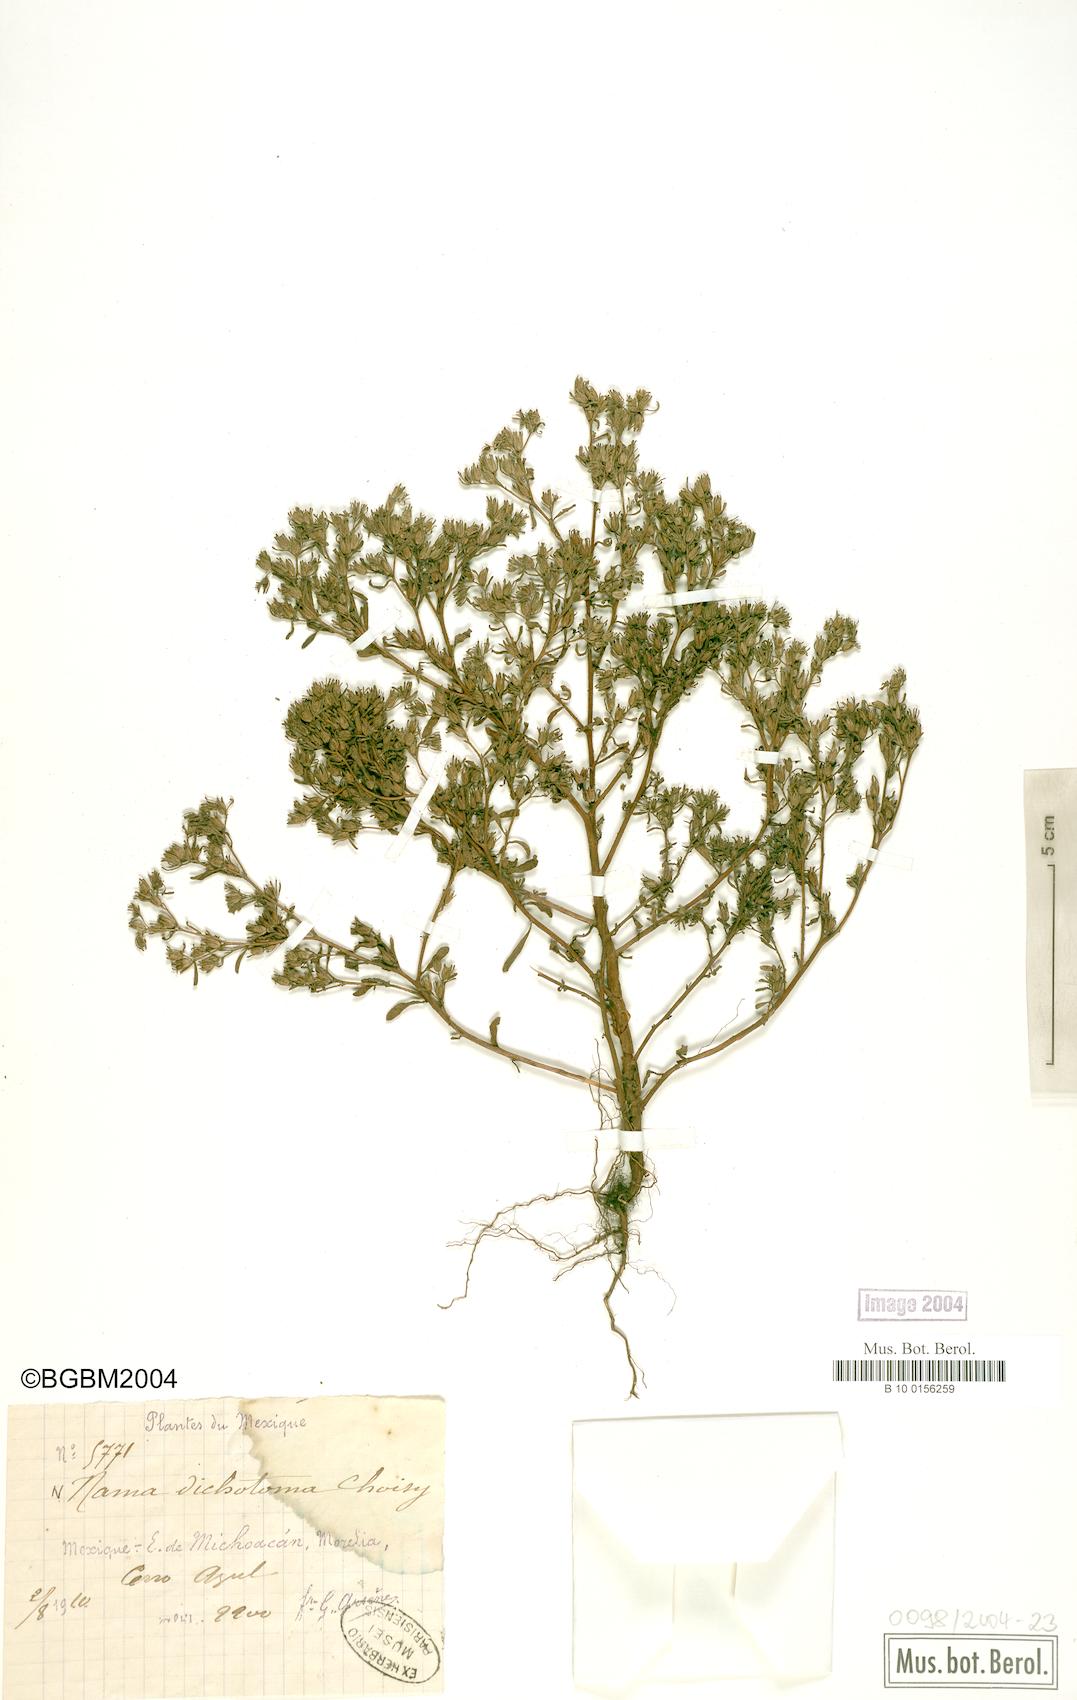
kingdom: Plantae
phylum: Tracheophyta
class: Magnoliopsida
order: Boraginales
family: Namaceae
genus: Nama
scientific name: Nama dichotoma
